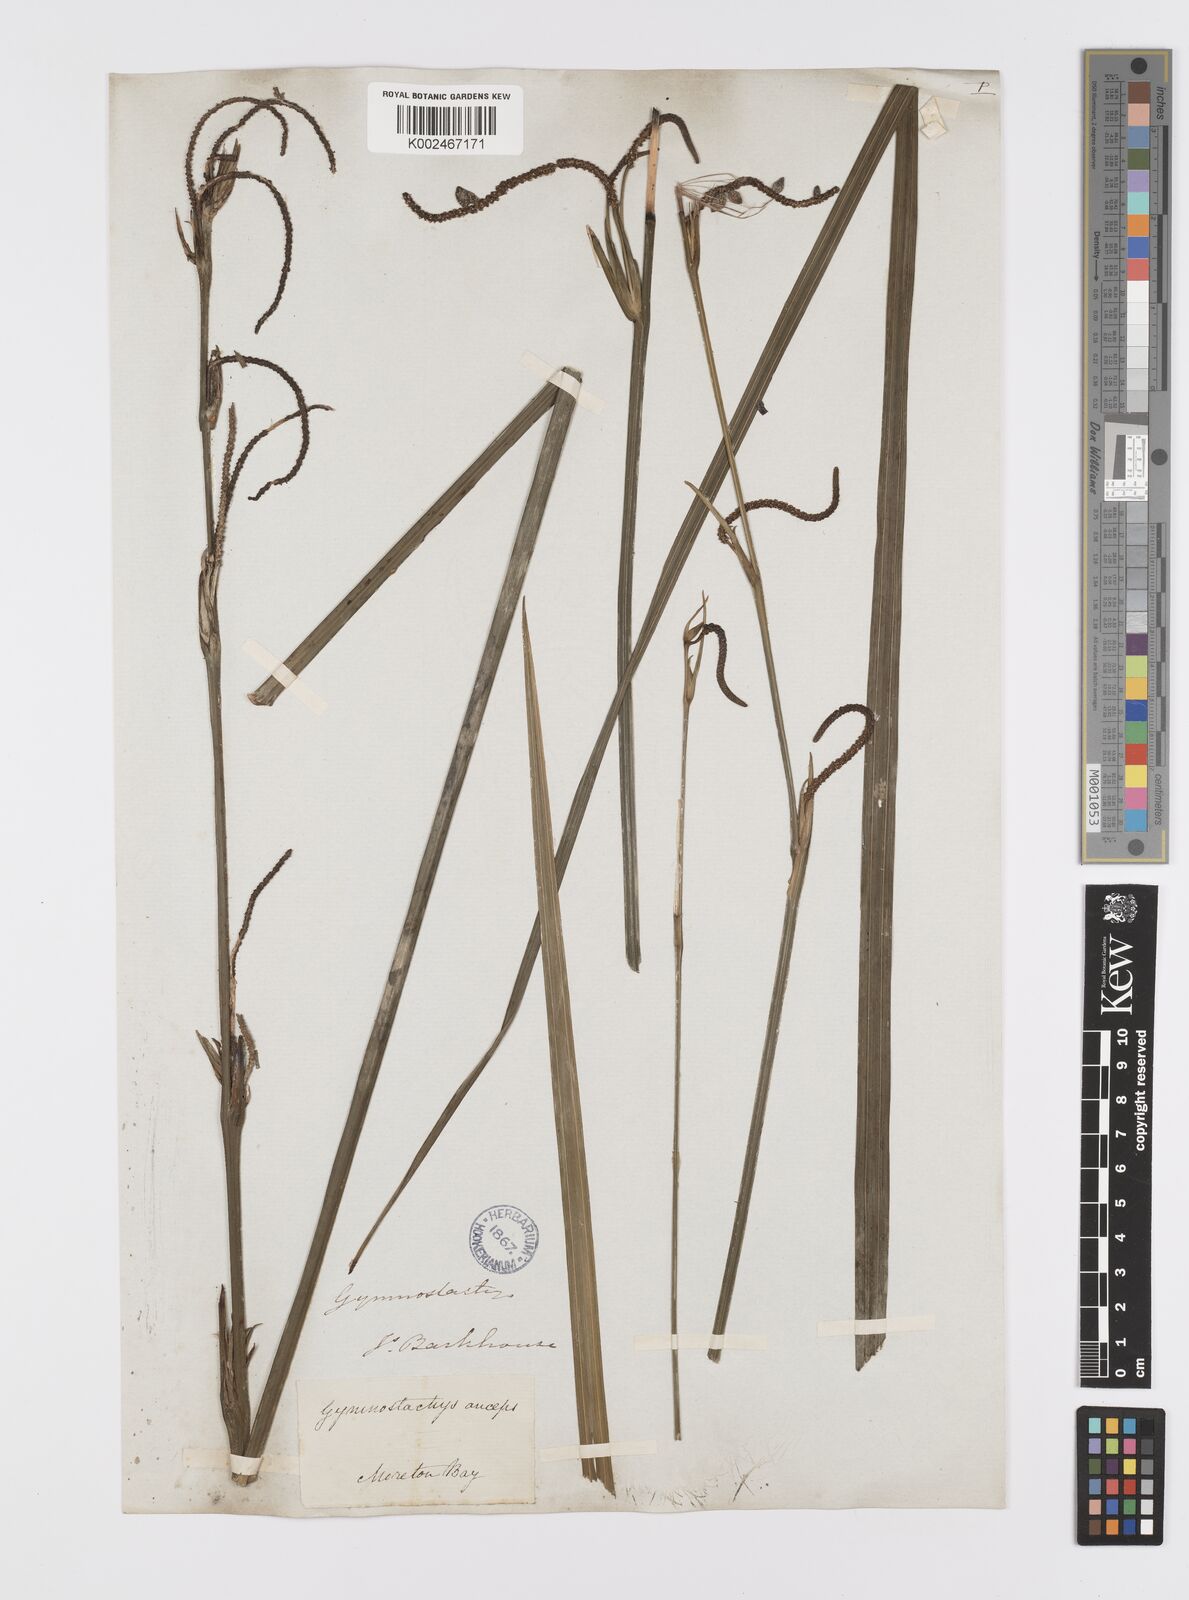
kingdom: Plantae
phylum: Tracheophyta
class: Liliopsida
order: Alismatales
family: Araceae
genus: Gymnostachys
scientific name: Gymnostachys anceps
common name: Settler's-flax
